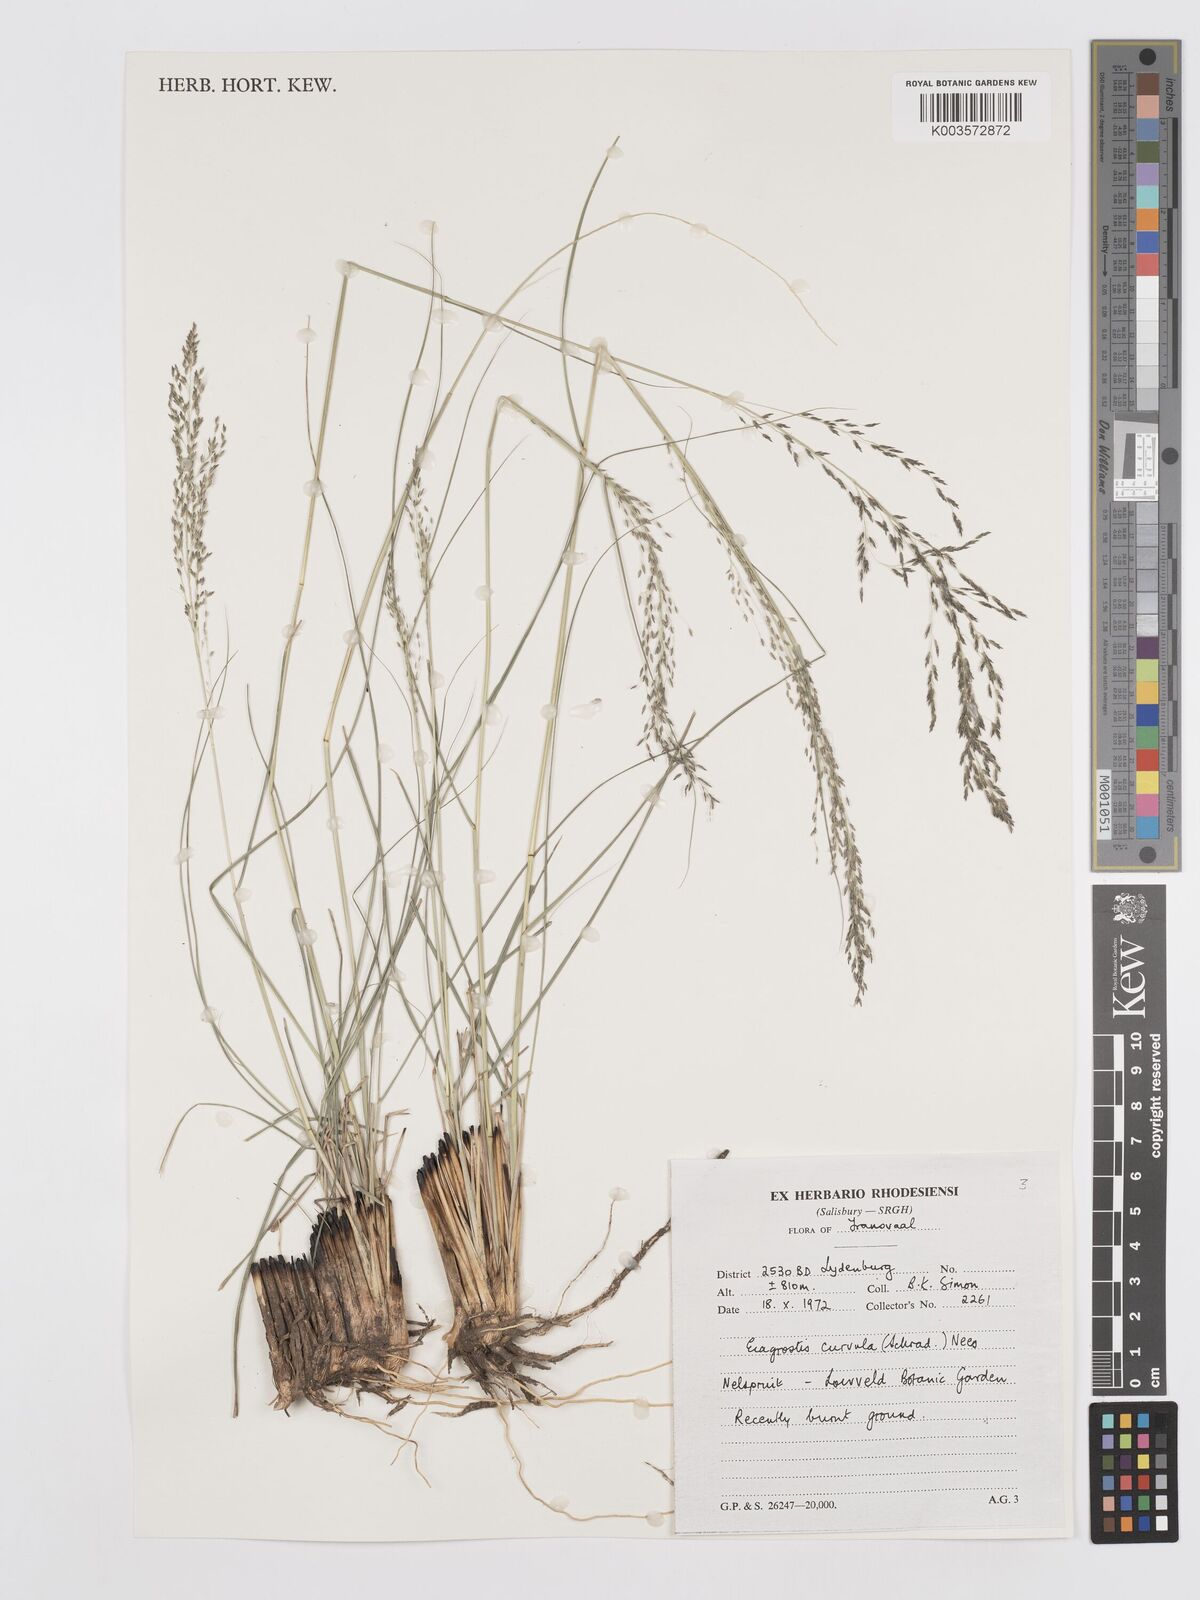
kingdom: Plantae
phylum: Tracheophyta
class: Liliopsida
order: Poales
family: Poaceae
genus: Eragrostis
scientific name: Eragrostis curvula
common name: African love-grass
